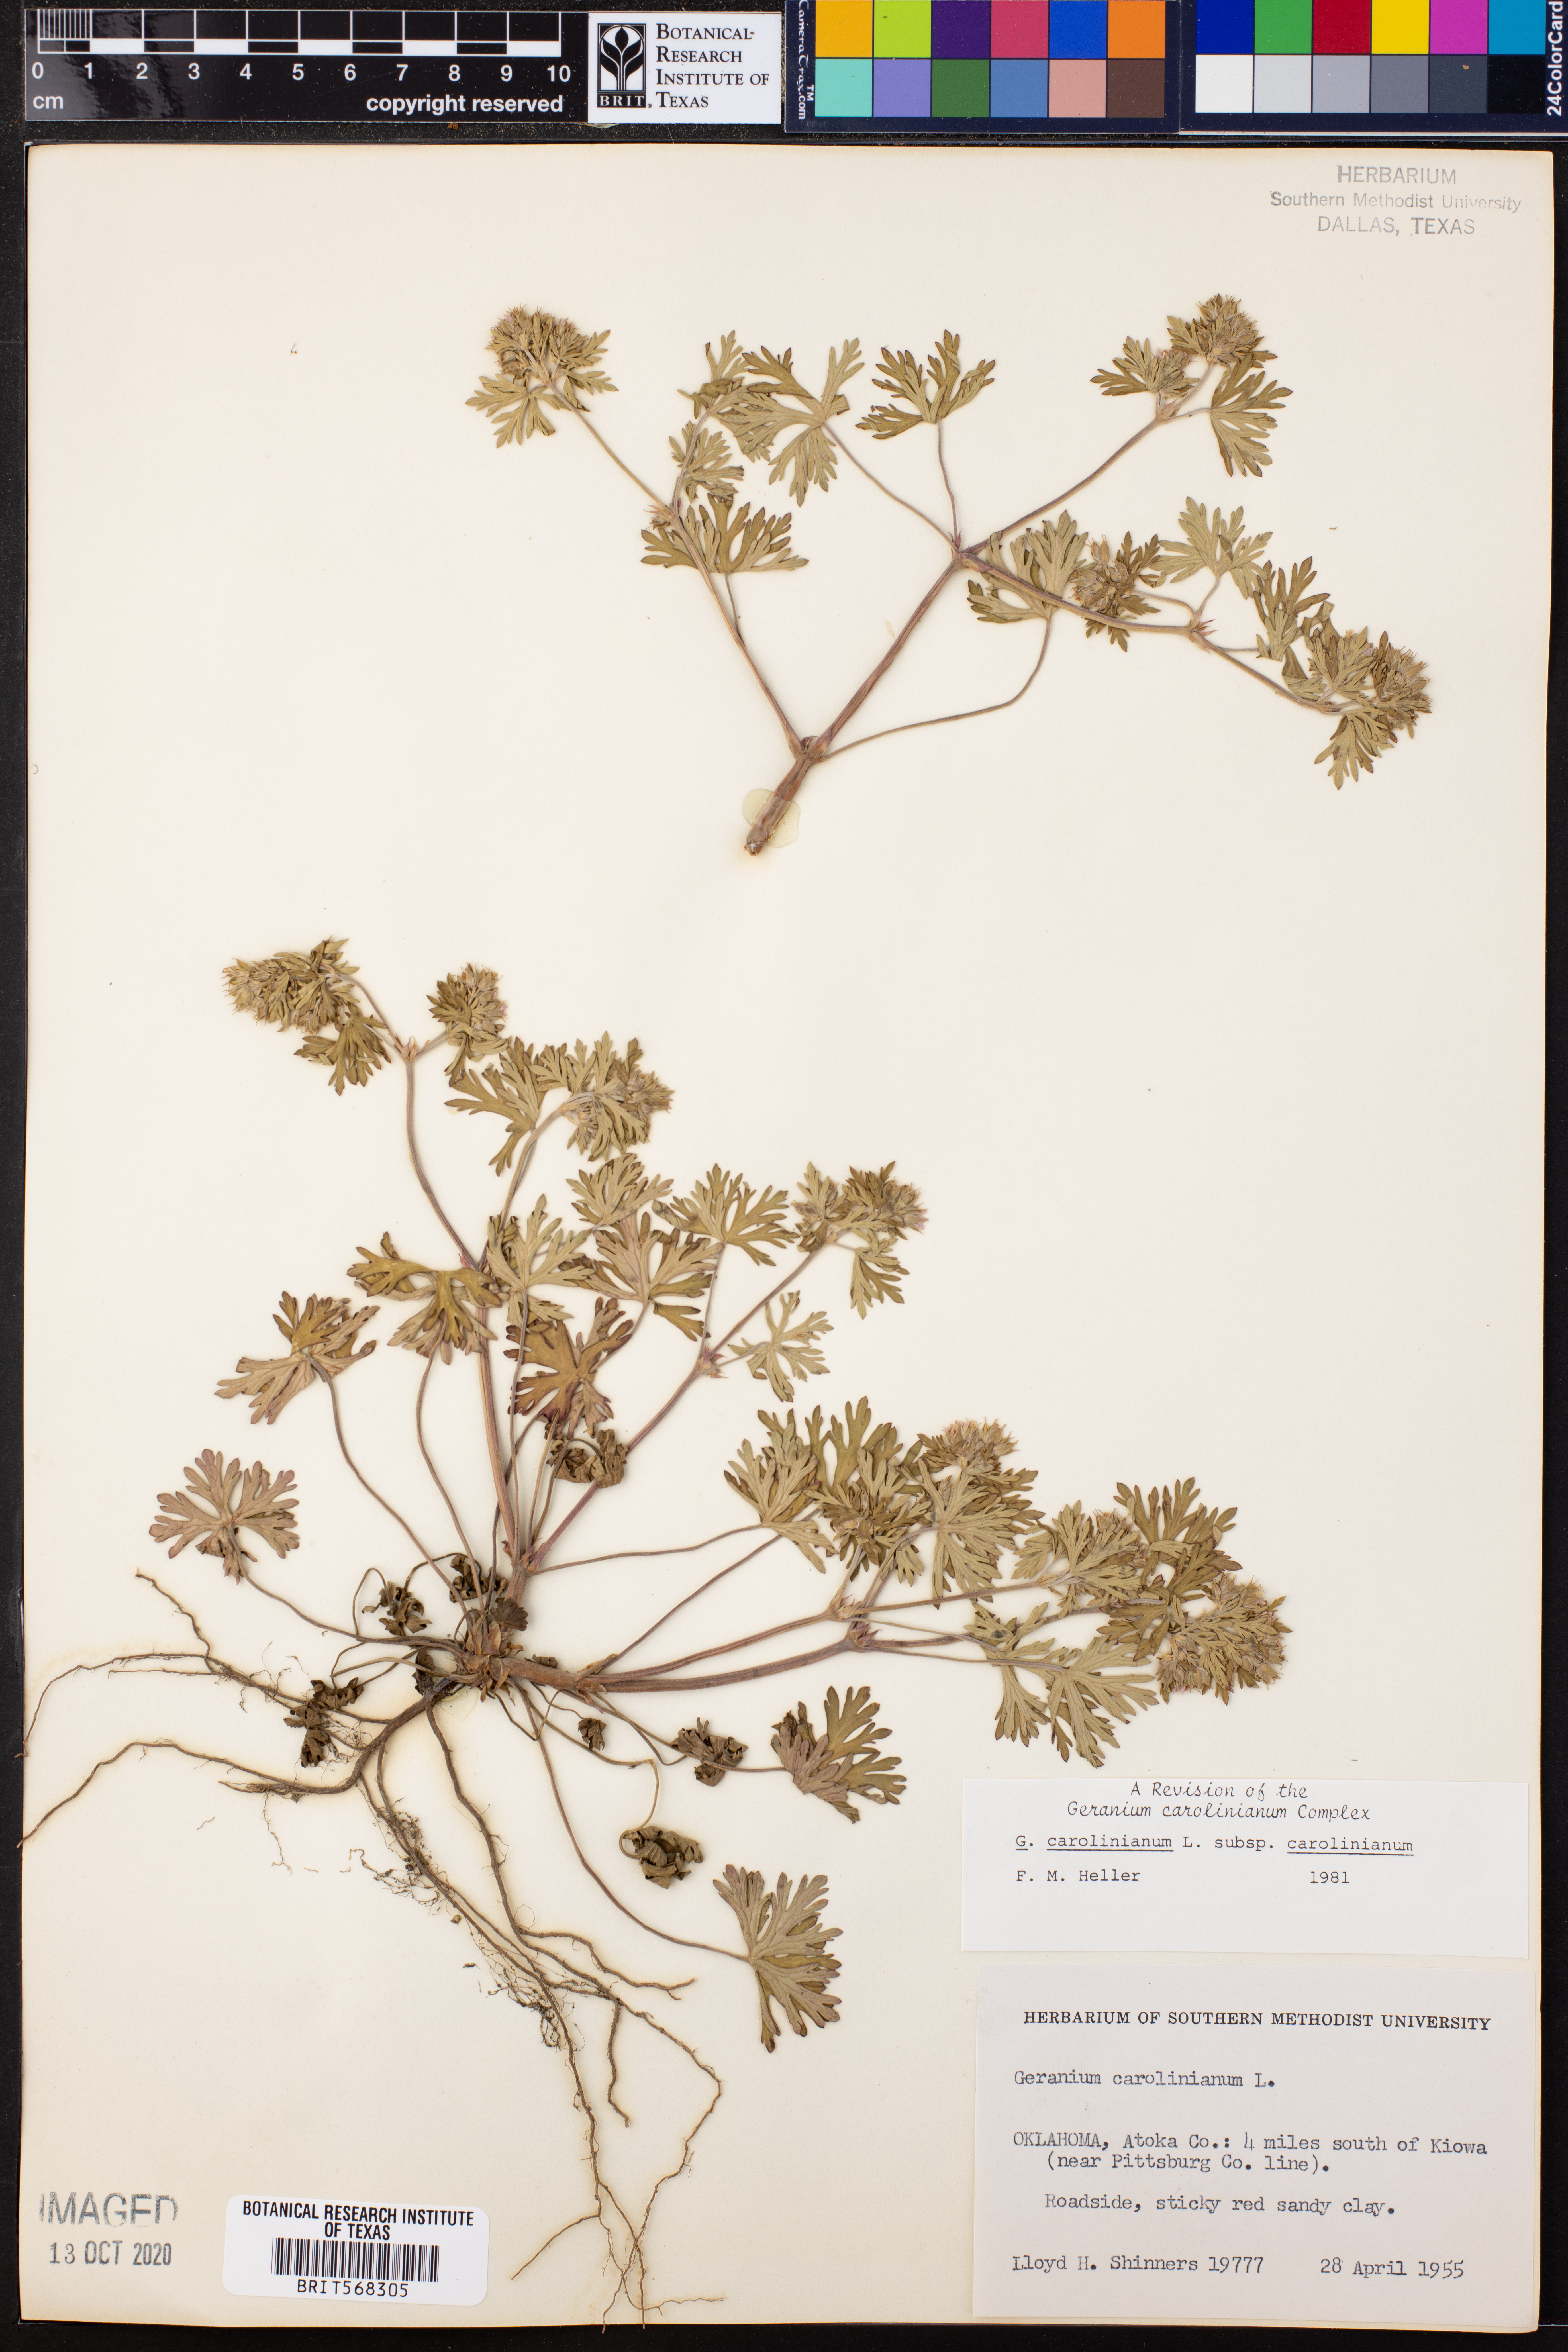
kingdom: Plantae
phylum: Tracheophyta
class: Magnoliopsida
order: Geraniales
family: Geraniaceae
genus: Geranium
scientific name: Geranium carolinianum
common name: Carolina crane's-bill
